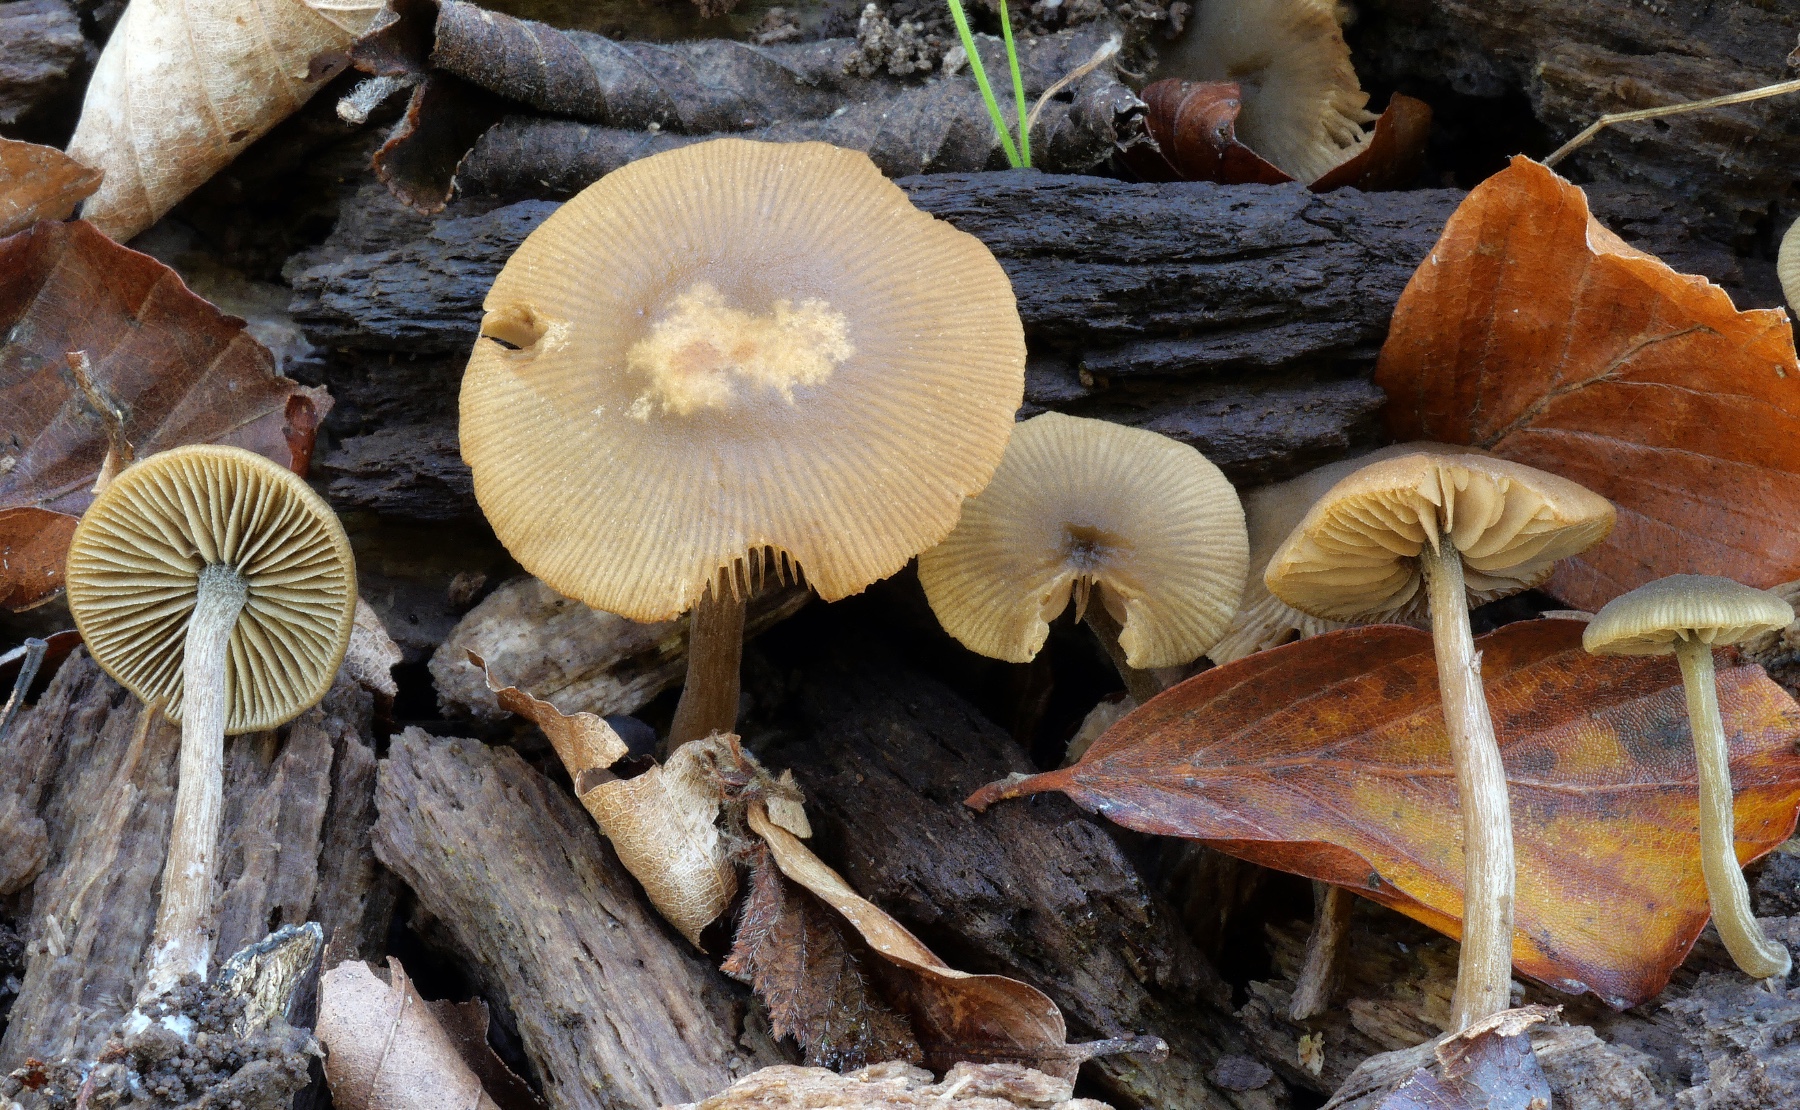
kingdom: Fungi
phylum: Basidiomycota
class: Agaricomycetes
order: Agaricales
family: Crepidotaceae
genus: Simocybe
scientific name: Simocybe centunculus
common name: enlig skyggehat
